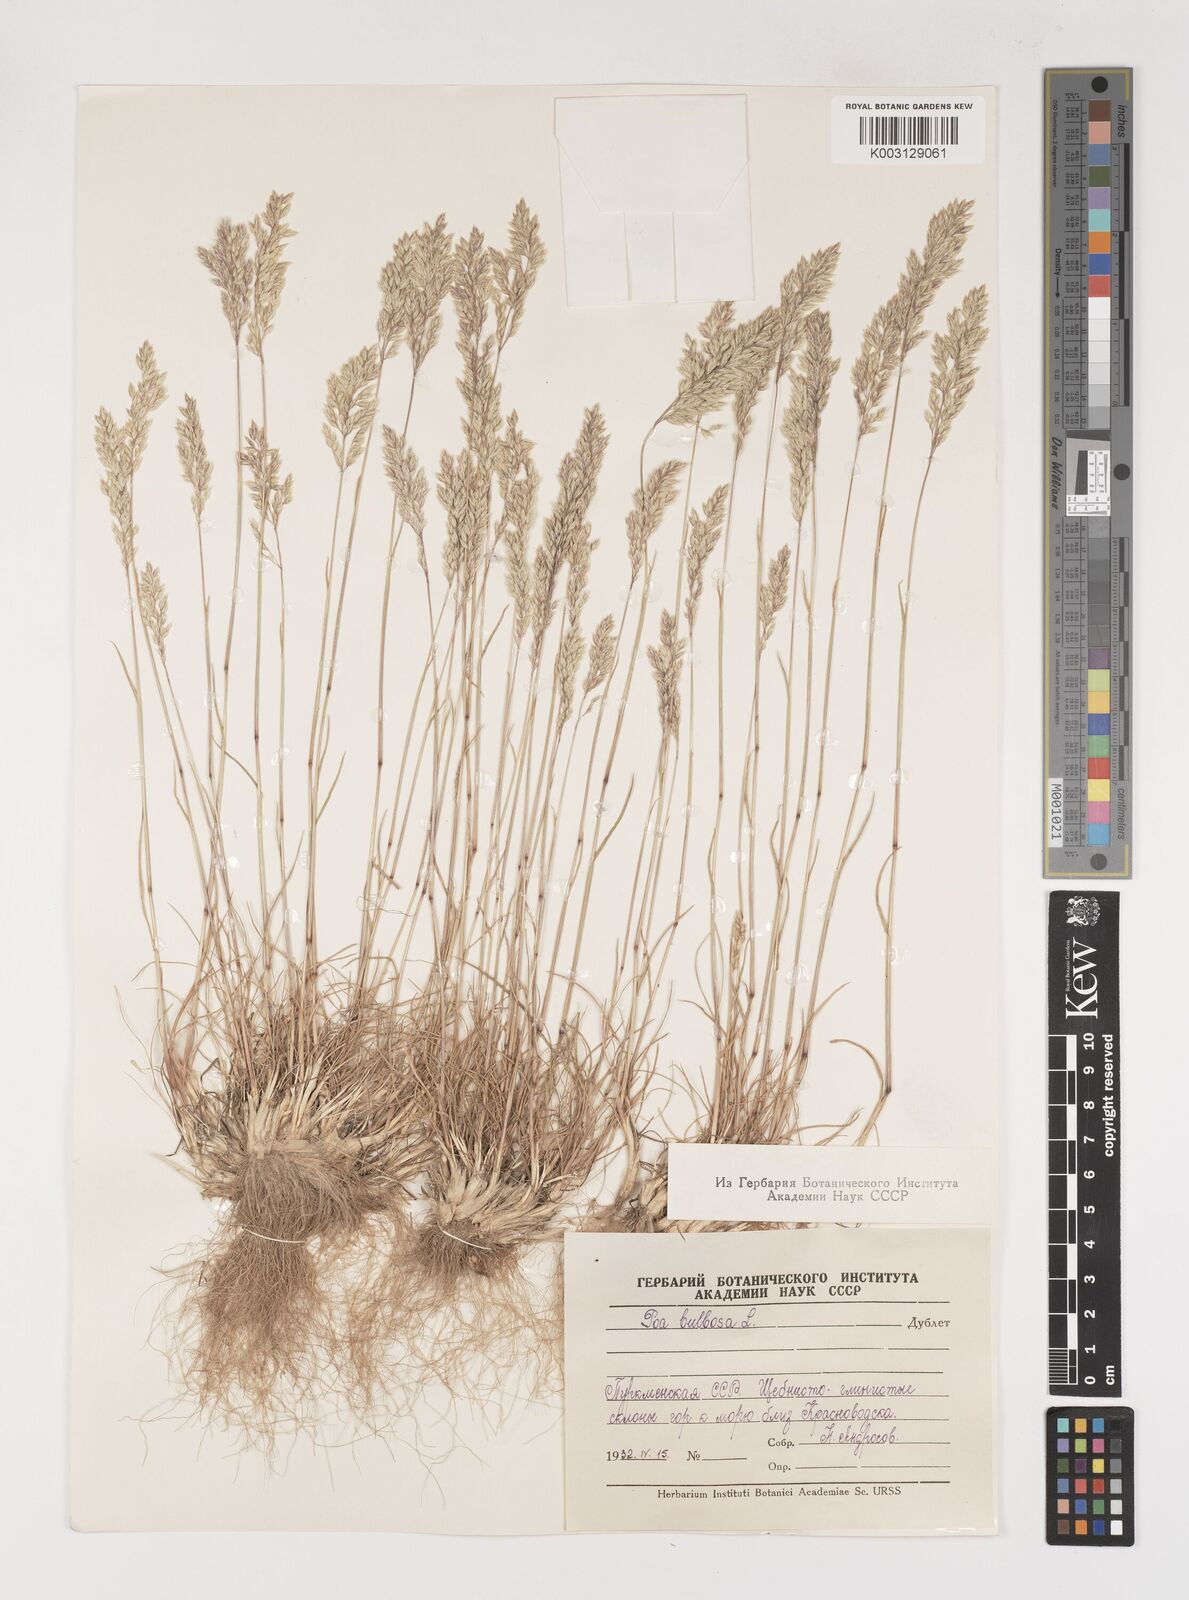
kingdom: Plantae
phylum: Tracheophyta
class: Liliopsida
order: Poales
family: Poaceae
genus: Poa
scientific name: Poa
